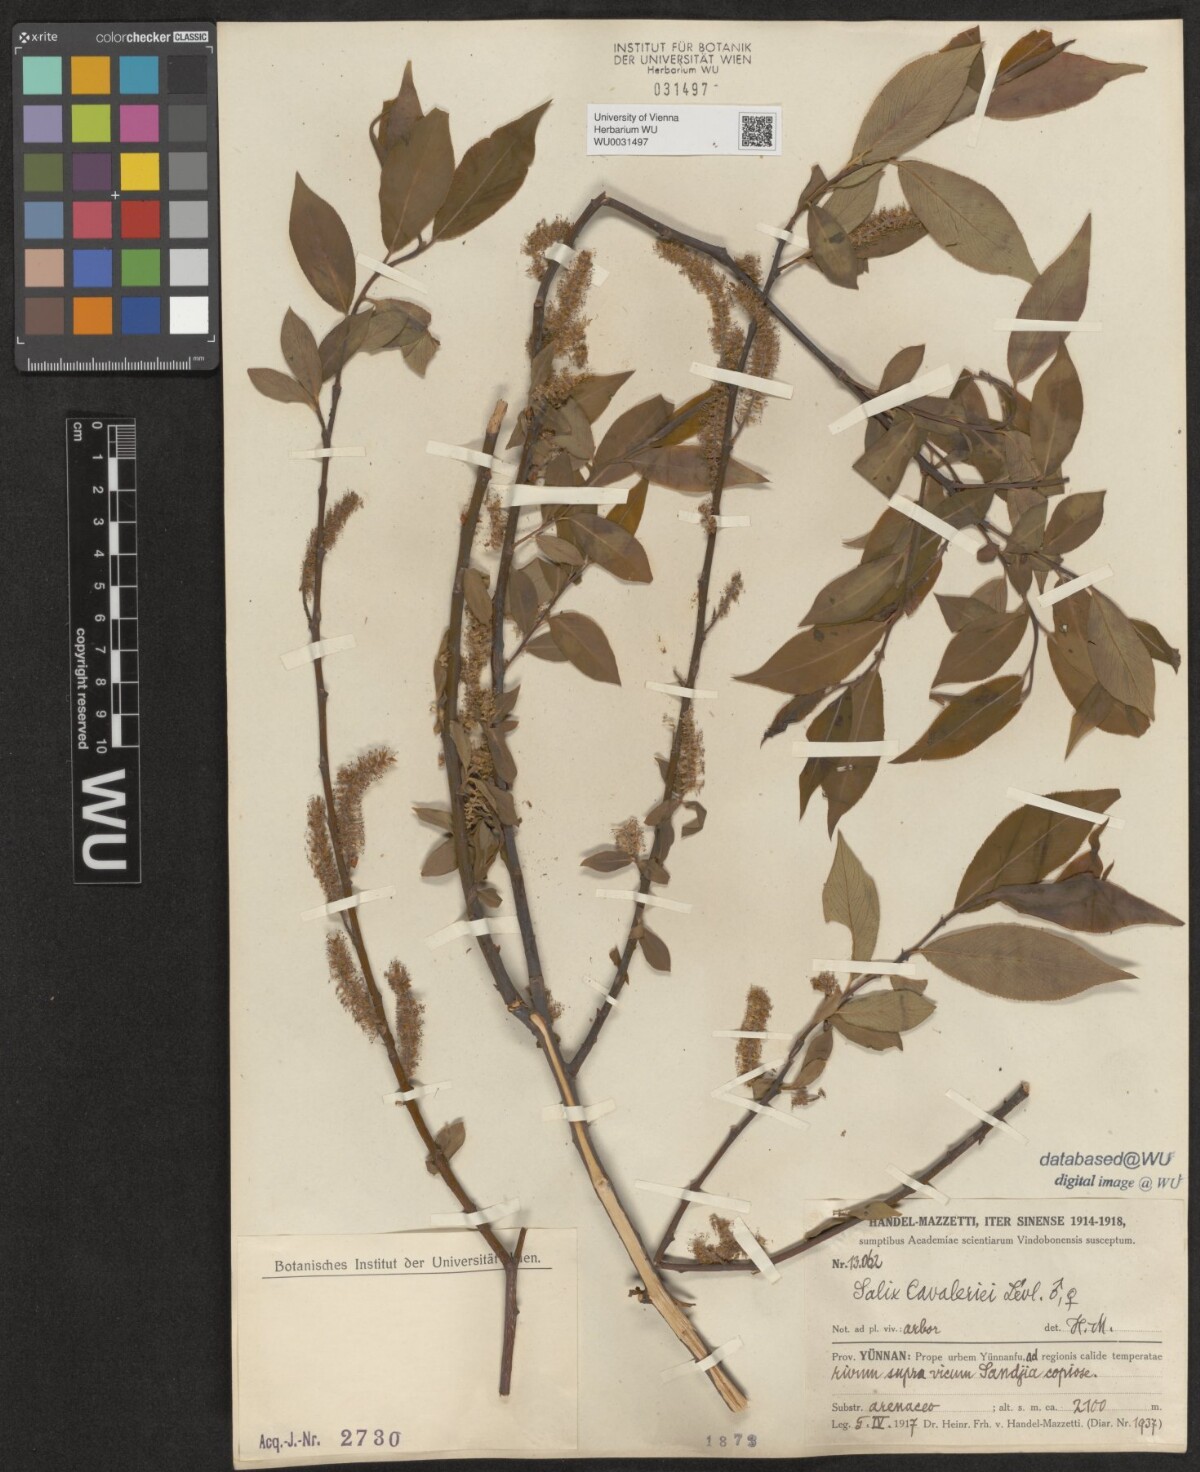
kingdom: Plantae
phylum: Tracheophyta
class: Magnoliopsida
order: Malpighiales
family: Salicaceae
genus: Salix
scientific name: Salix cavaleriei
